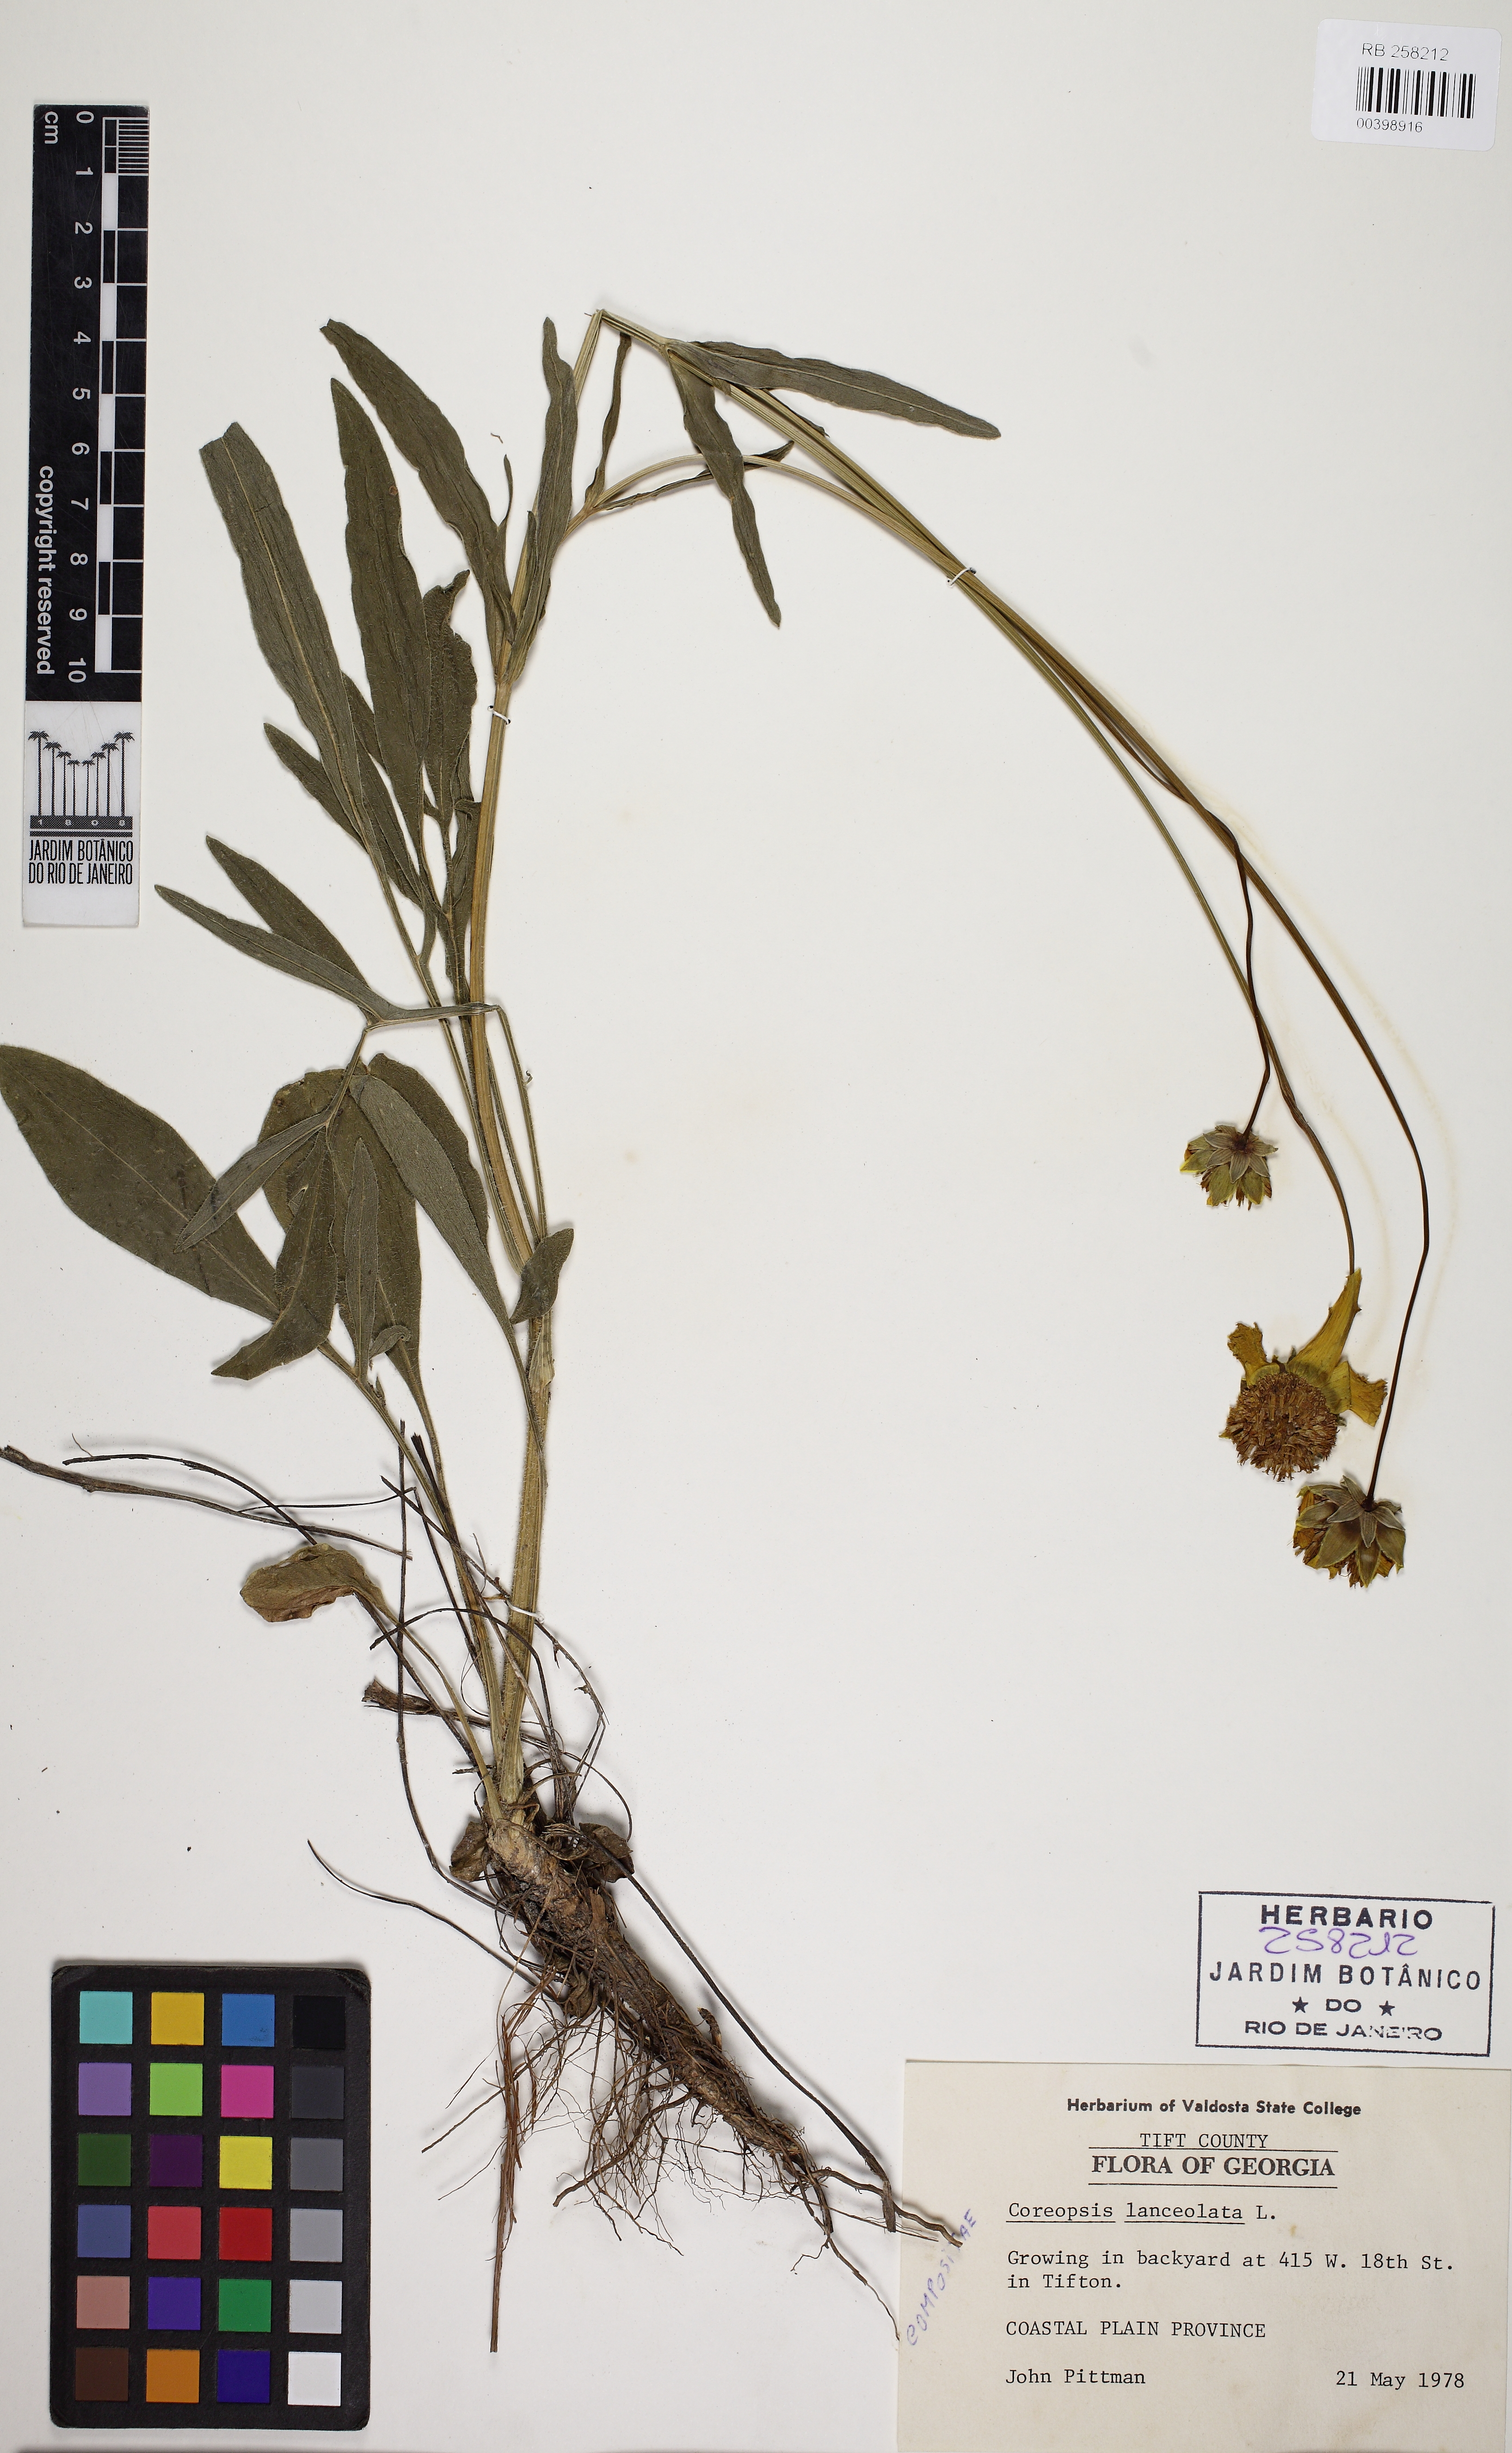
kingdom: Plantae
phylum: Tracheophyta
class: Magnoliopsida
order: Asterales
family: Asteraceae
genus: Coreopsis
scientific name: Coreopsis lanceolata
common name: Garden coreopsis
